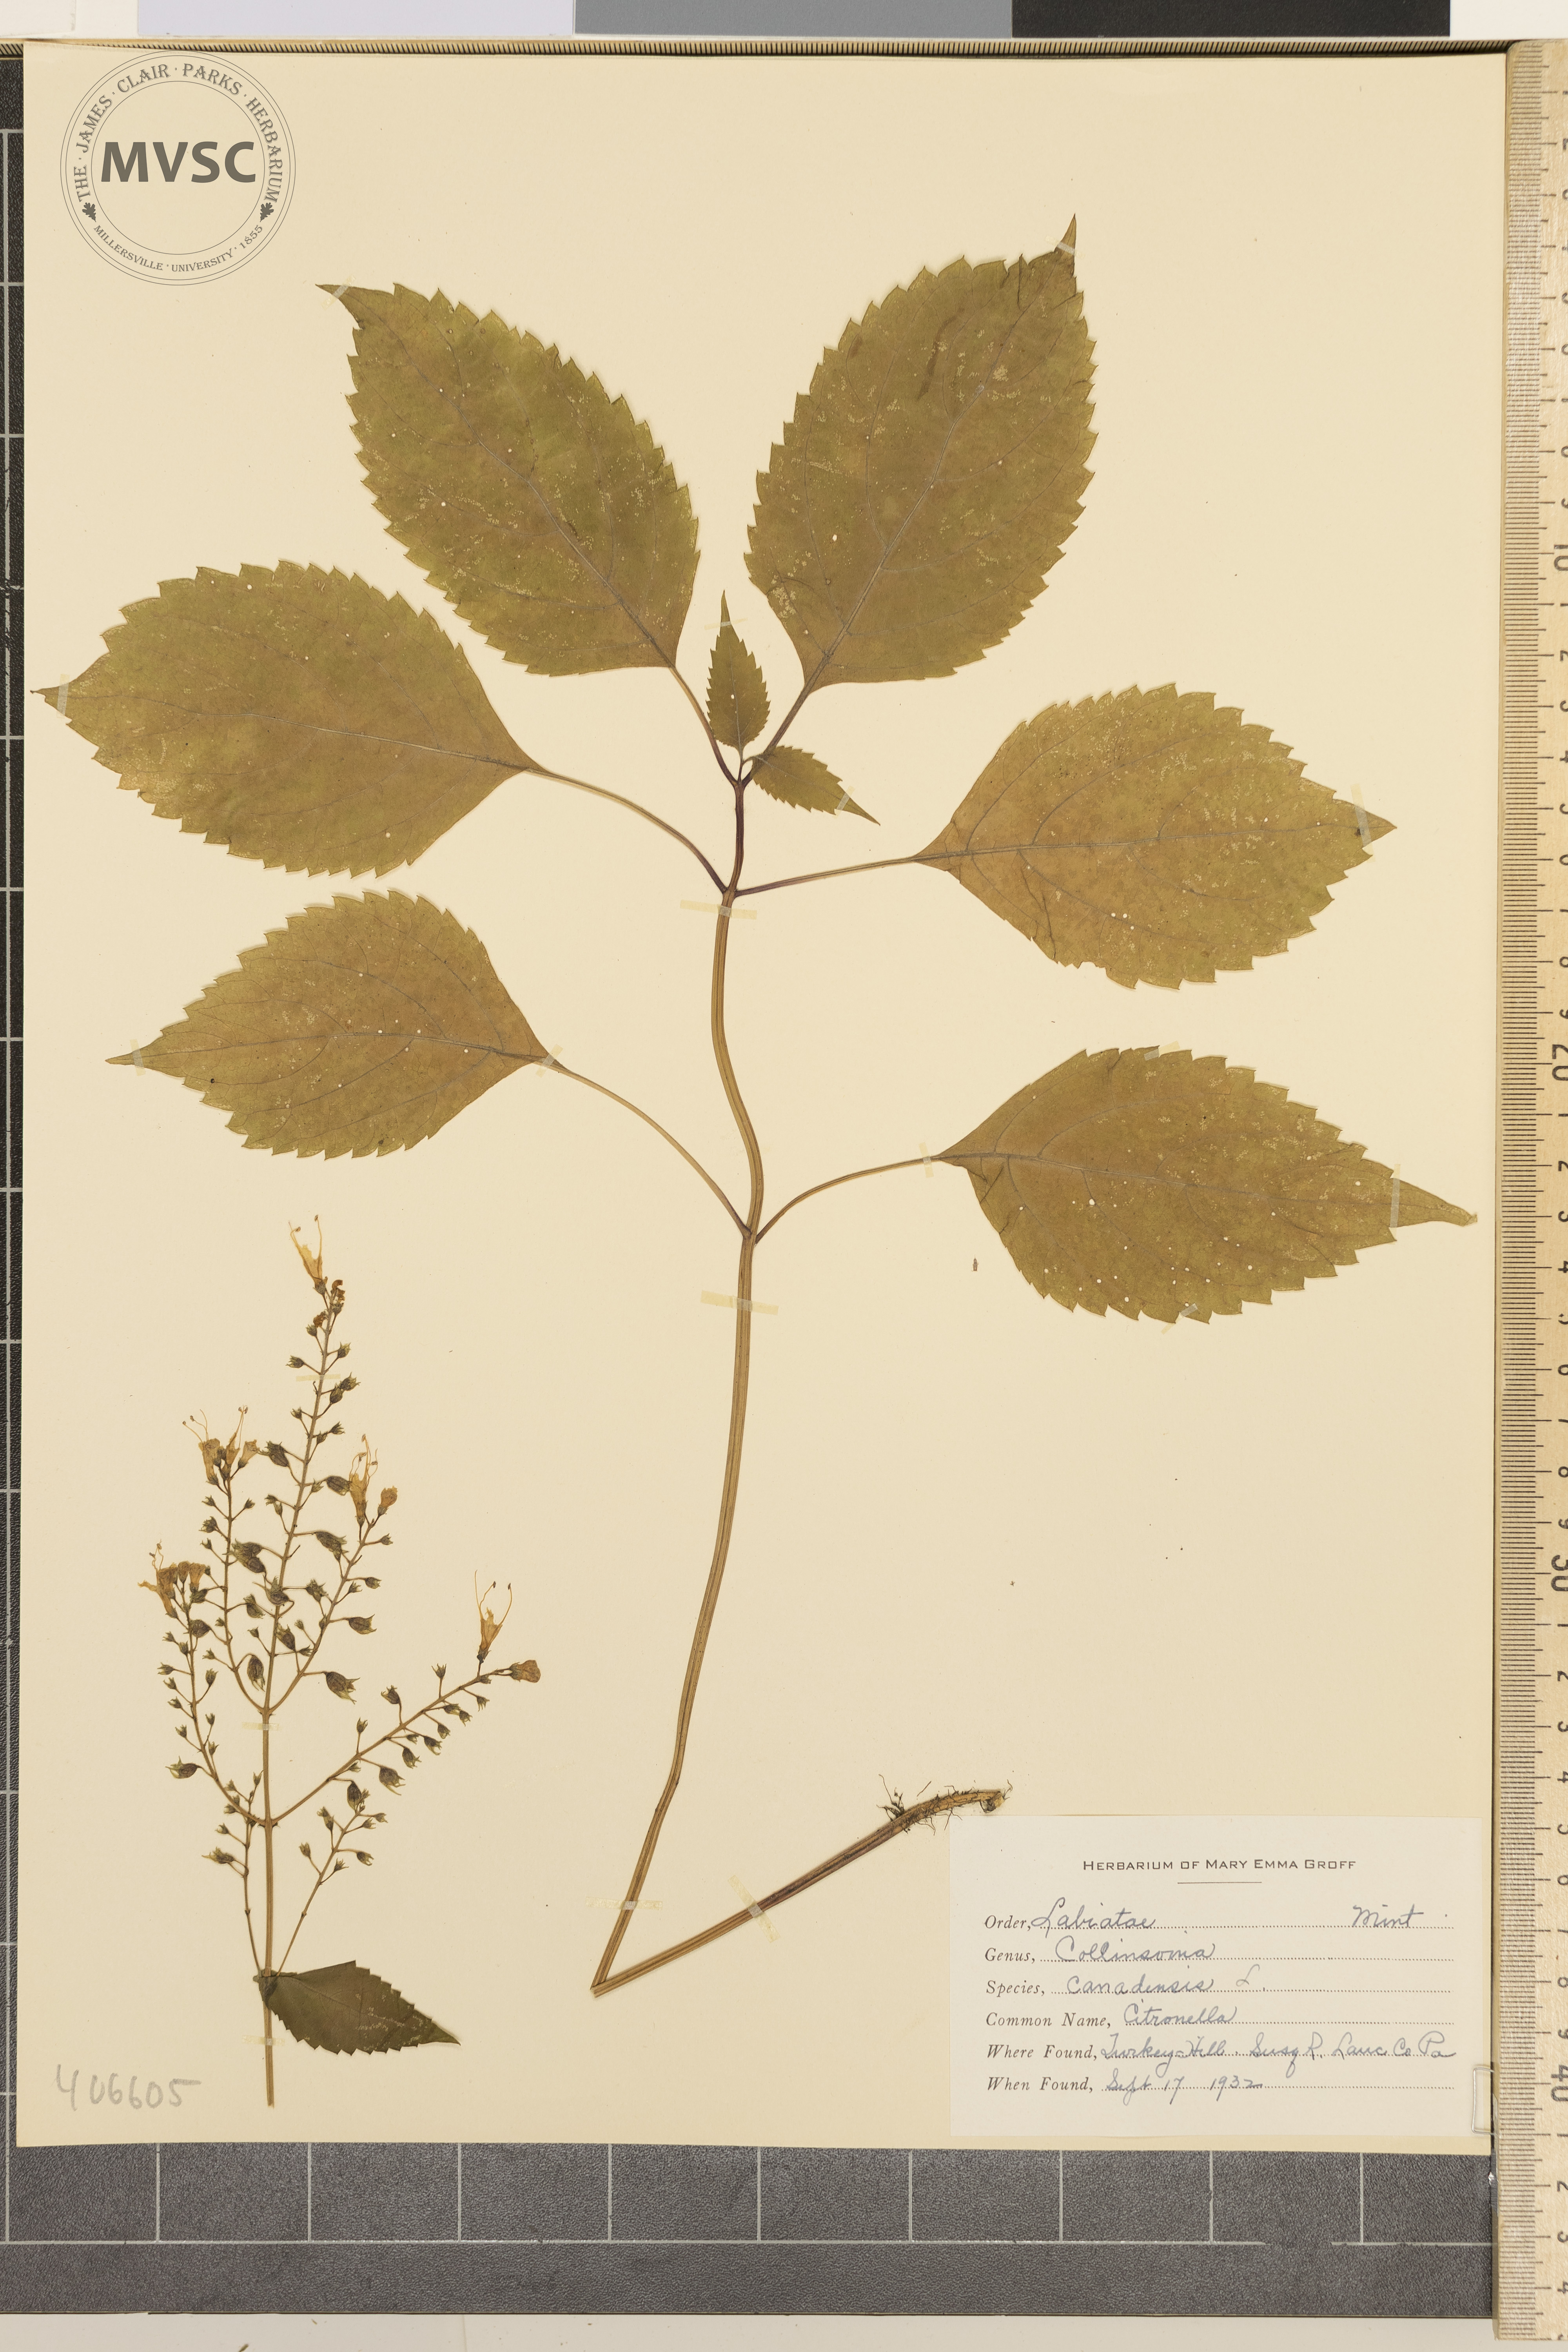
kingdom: Plantae
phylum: Tracheophyta
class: Magnoliopsida
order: Lamiales
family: Lamiaceae
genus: Collinsonia
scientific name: Collinsonia canadensis
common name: Citronella
